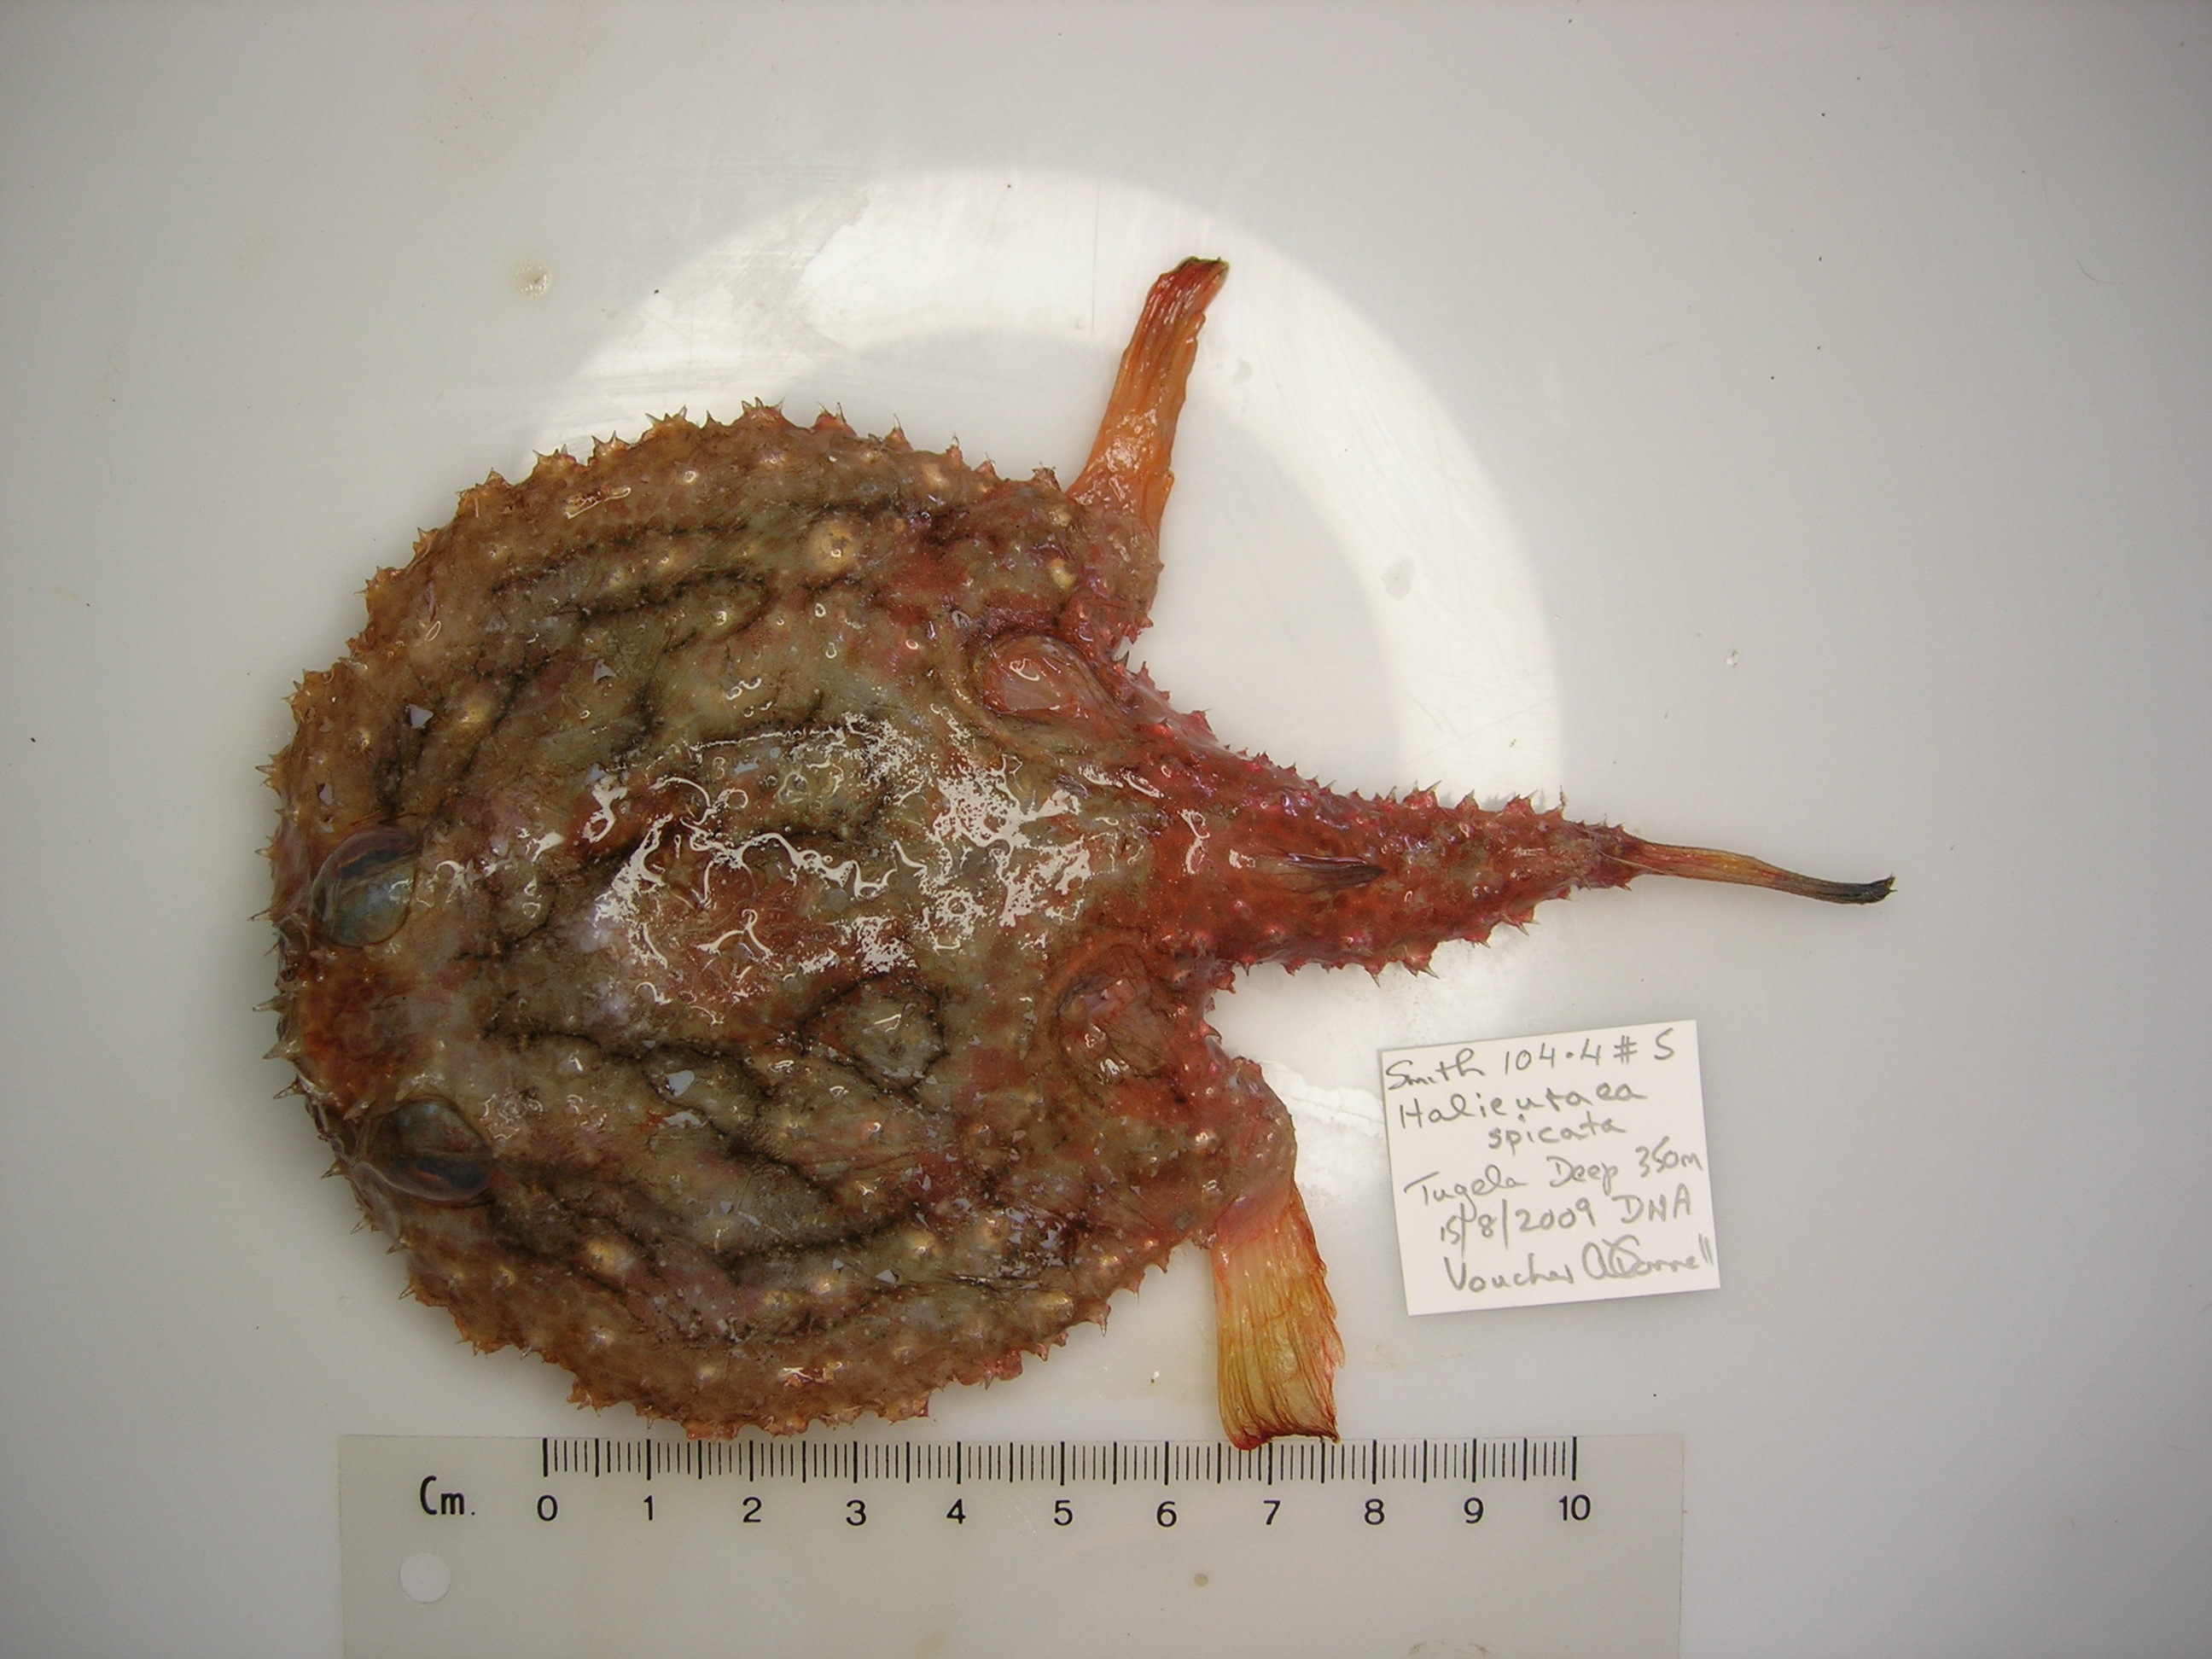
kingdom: Animalia
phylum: Chordata
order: Lophiiformes
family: Ogcocephalidae
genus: Halieutaea
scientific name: Halieutaea indica
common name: Indian handfish
